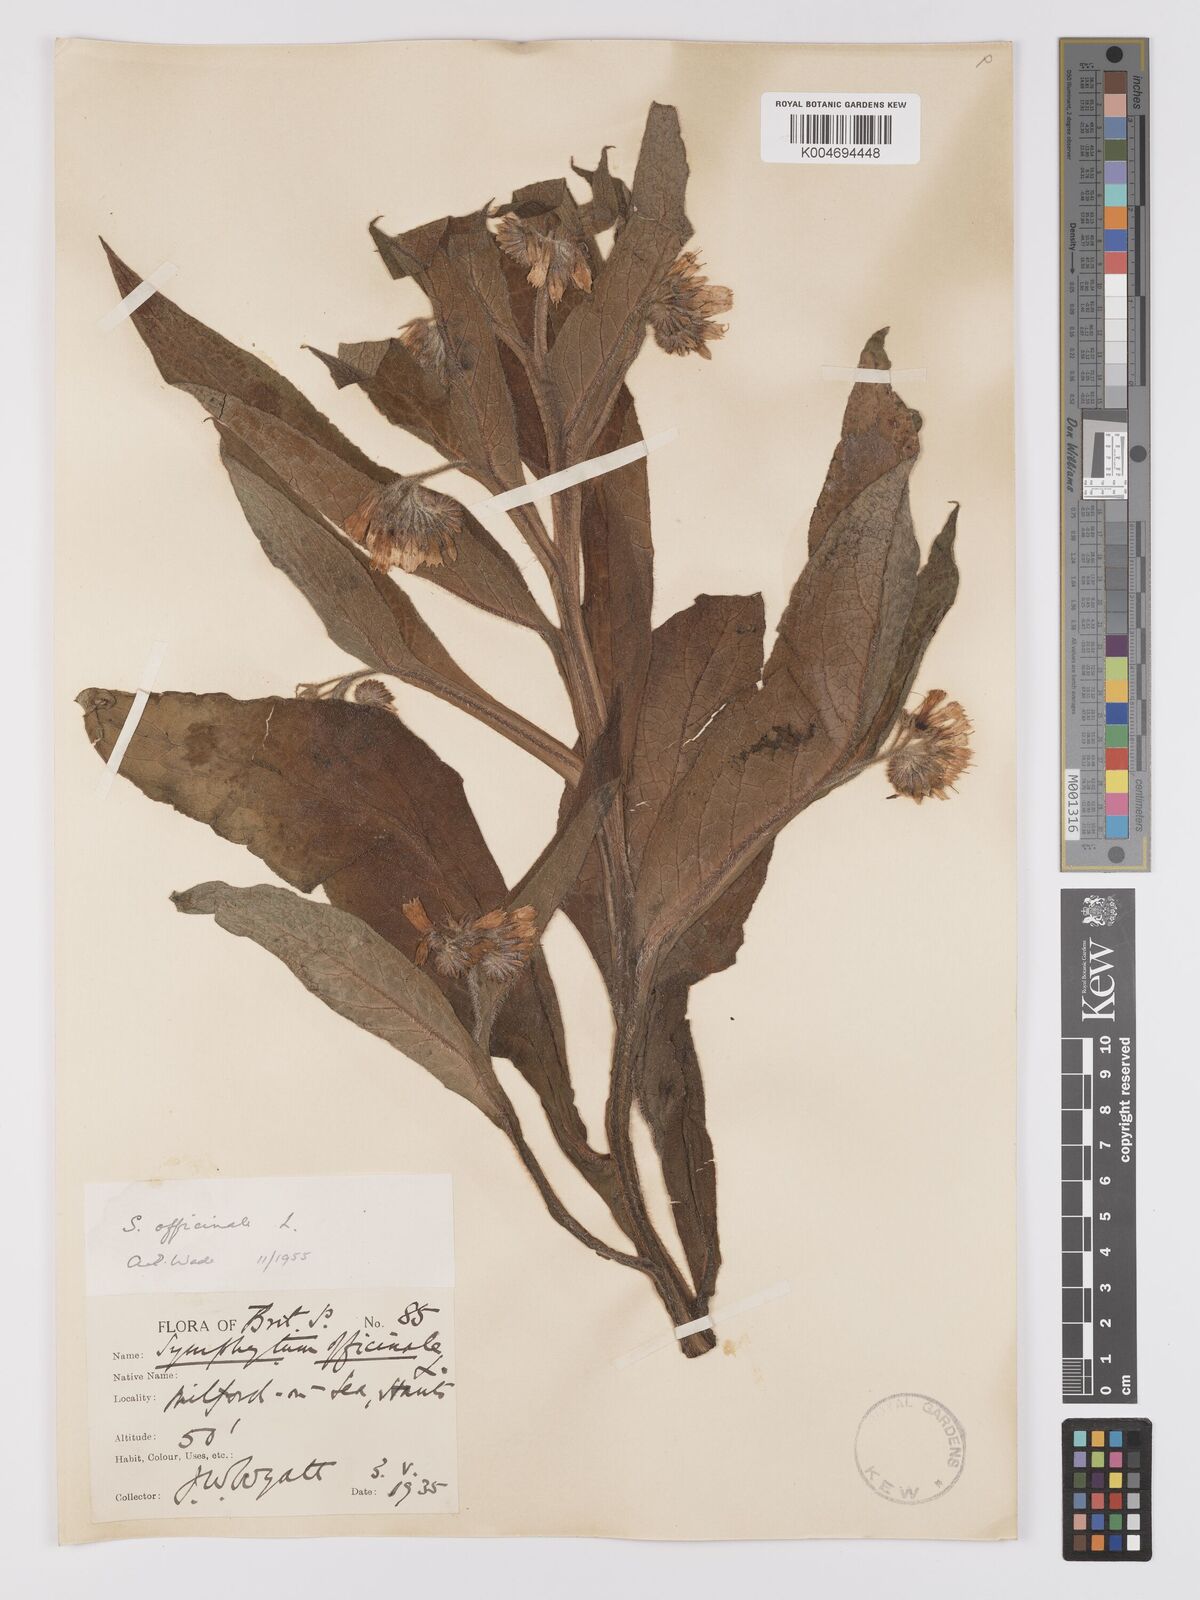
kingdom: Plantae
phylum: Tracheophyta
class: Magnoliopsida
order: Boraginales
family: Boraginaceae
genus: Symphytum
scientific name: Symphytum officinale
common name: Common comfrey
